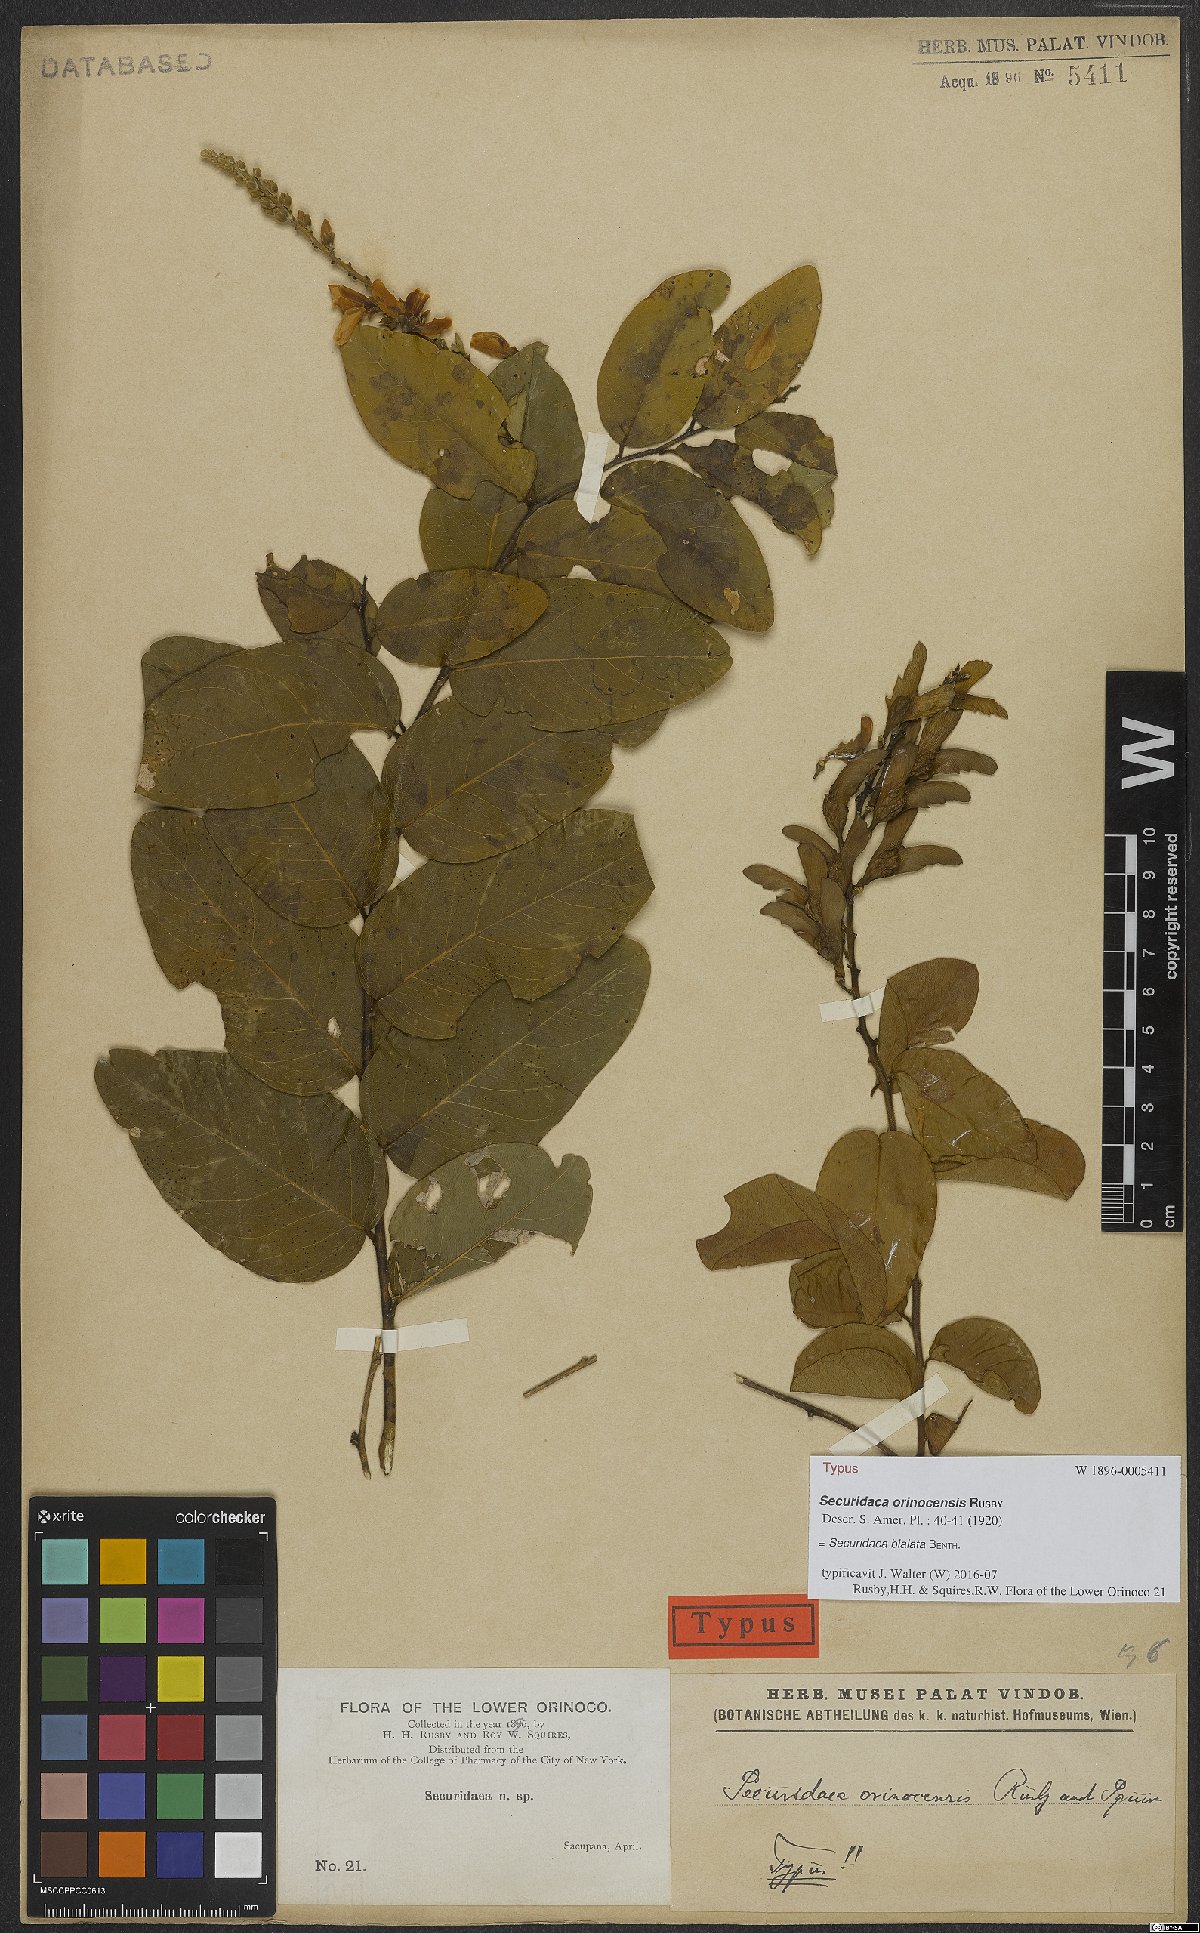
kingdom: Plantae
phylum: Tracheophyta
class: Magnoliopsida
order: Fabales
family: Polygalaceae
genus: Securidaca
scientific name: Securidaca bialata
